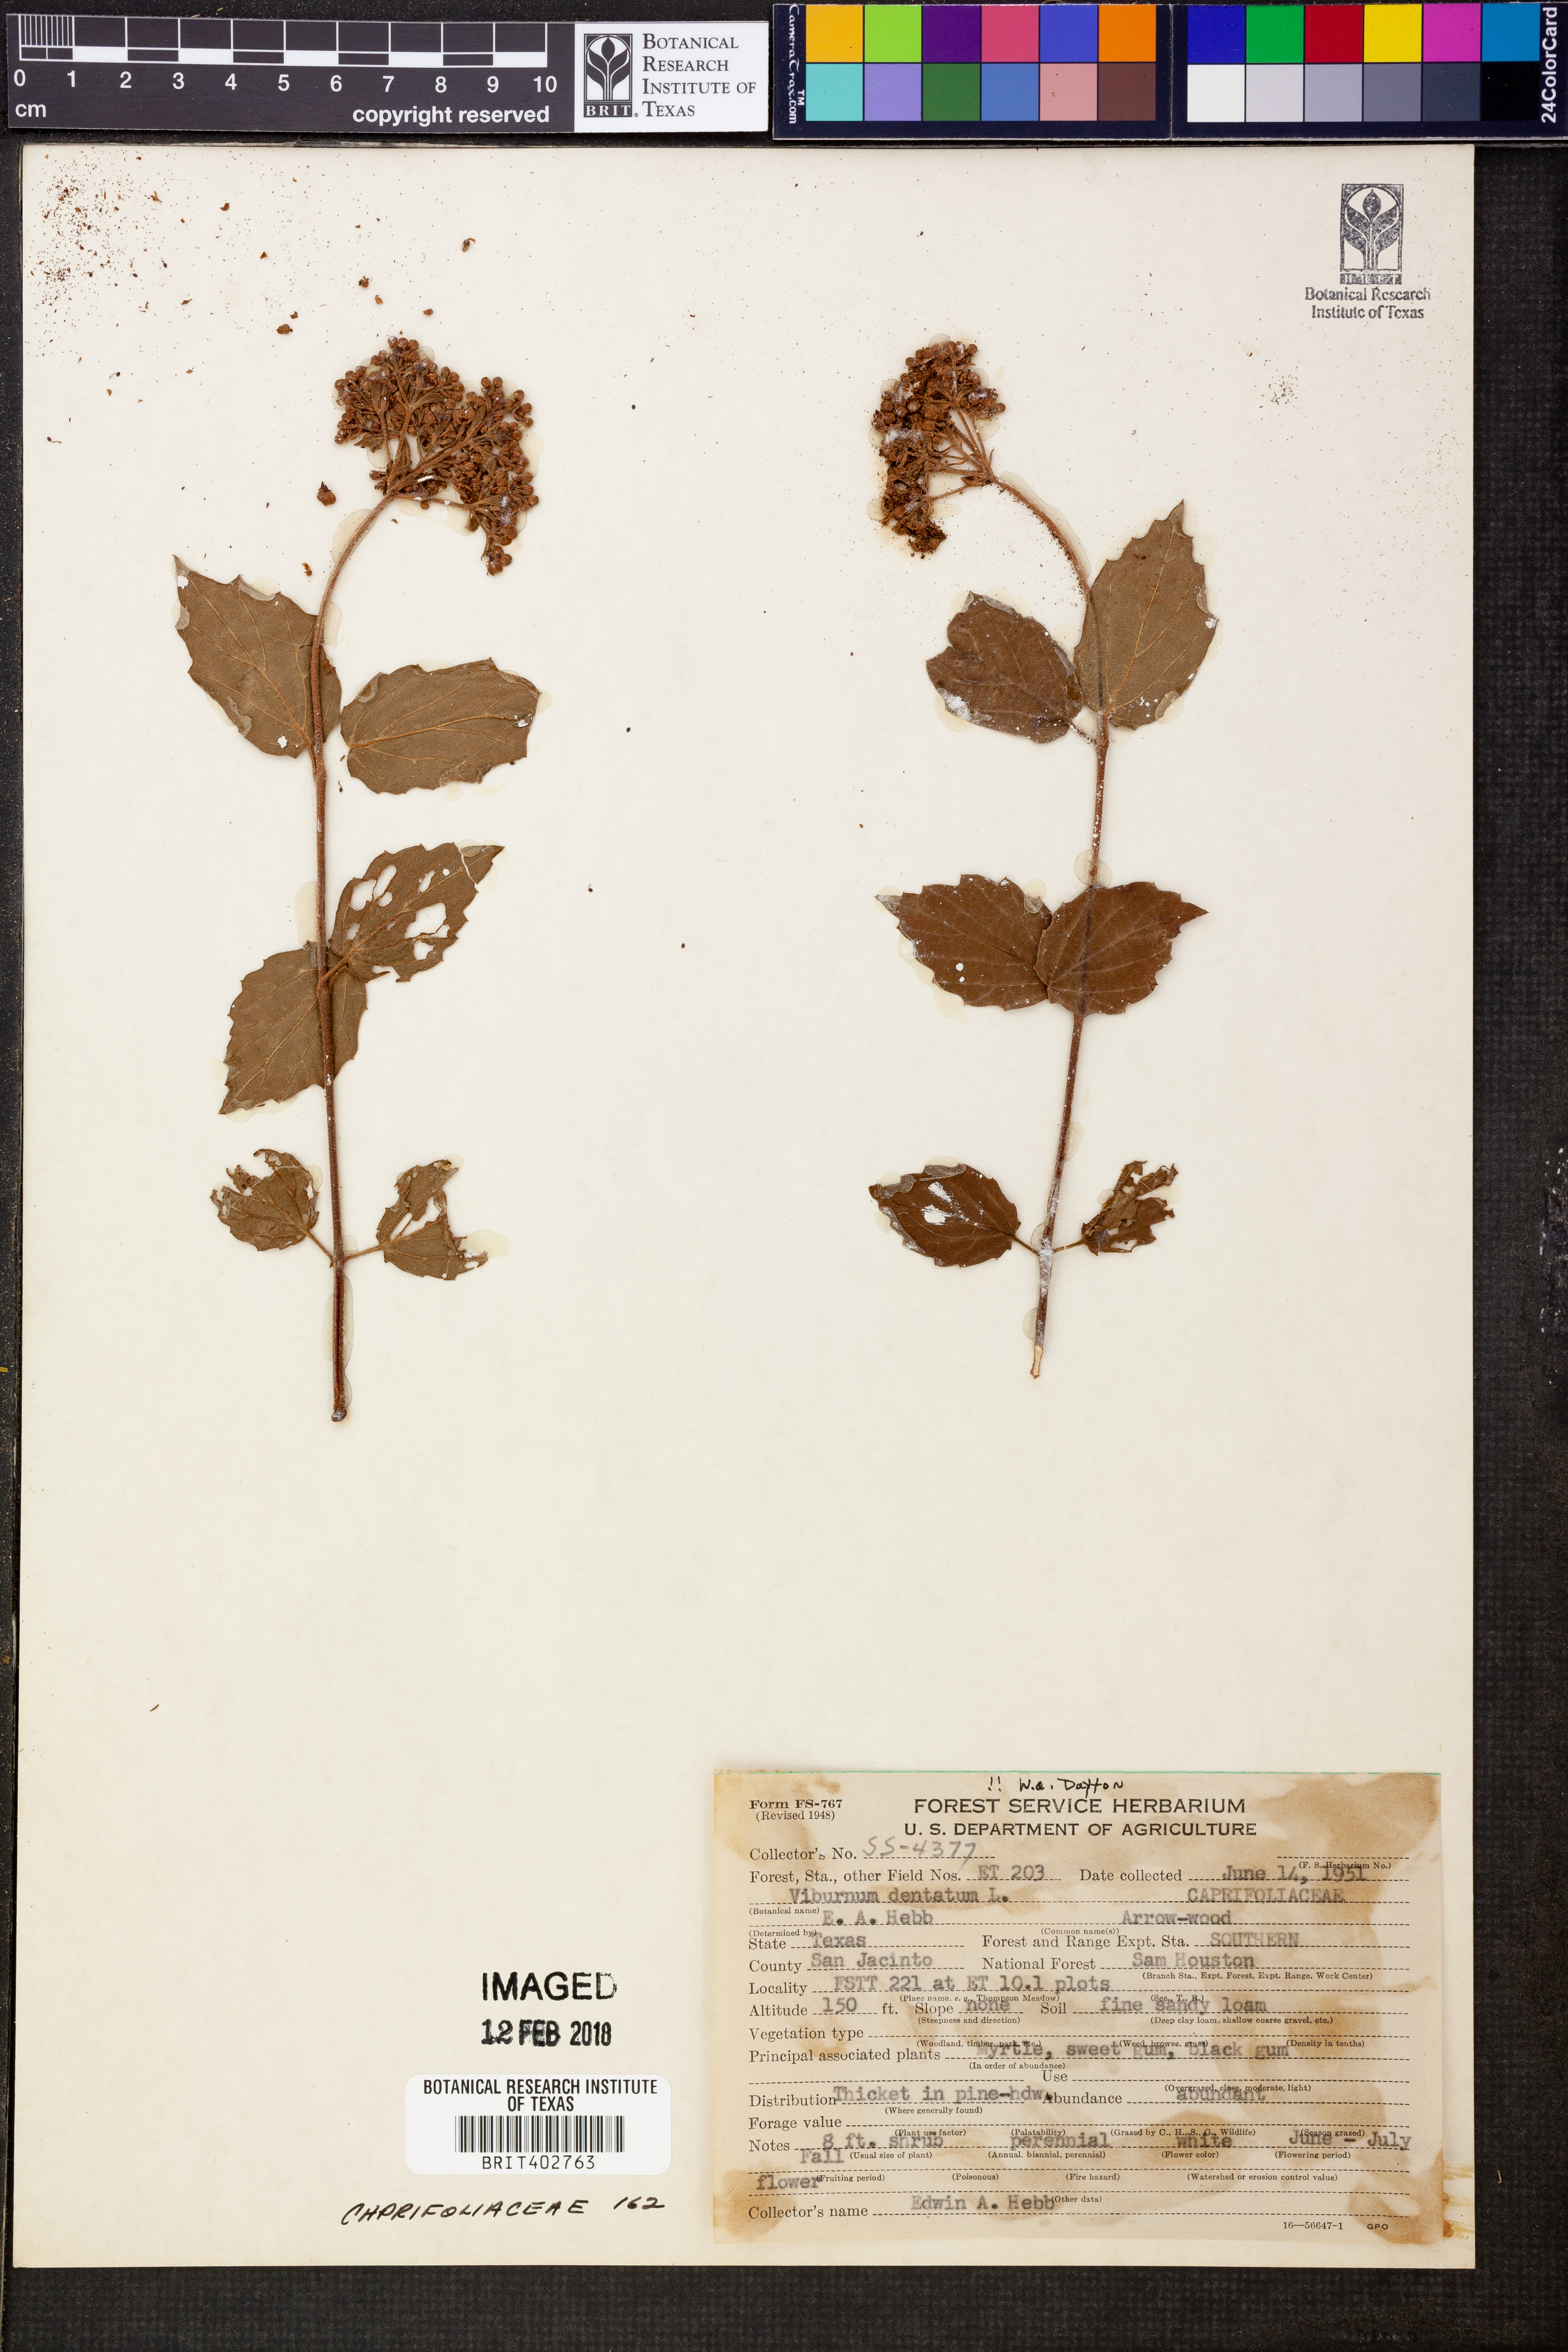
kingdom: Plantae
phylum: Tracheophyta
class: Magnoliopsida
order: Dipsacales
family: Viburnaceae
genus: Viburnum
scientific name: Viburnum dentatum
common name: Arrow-wood
